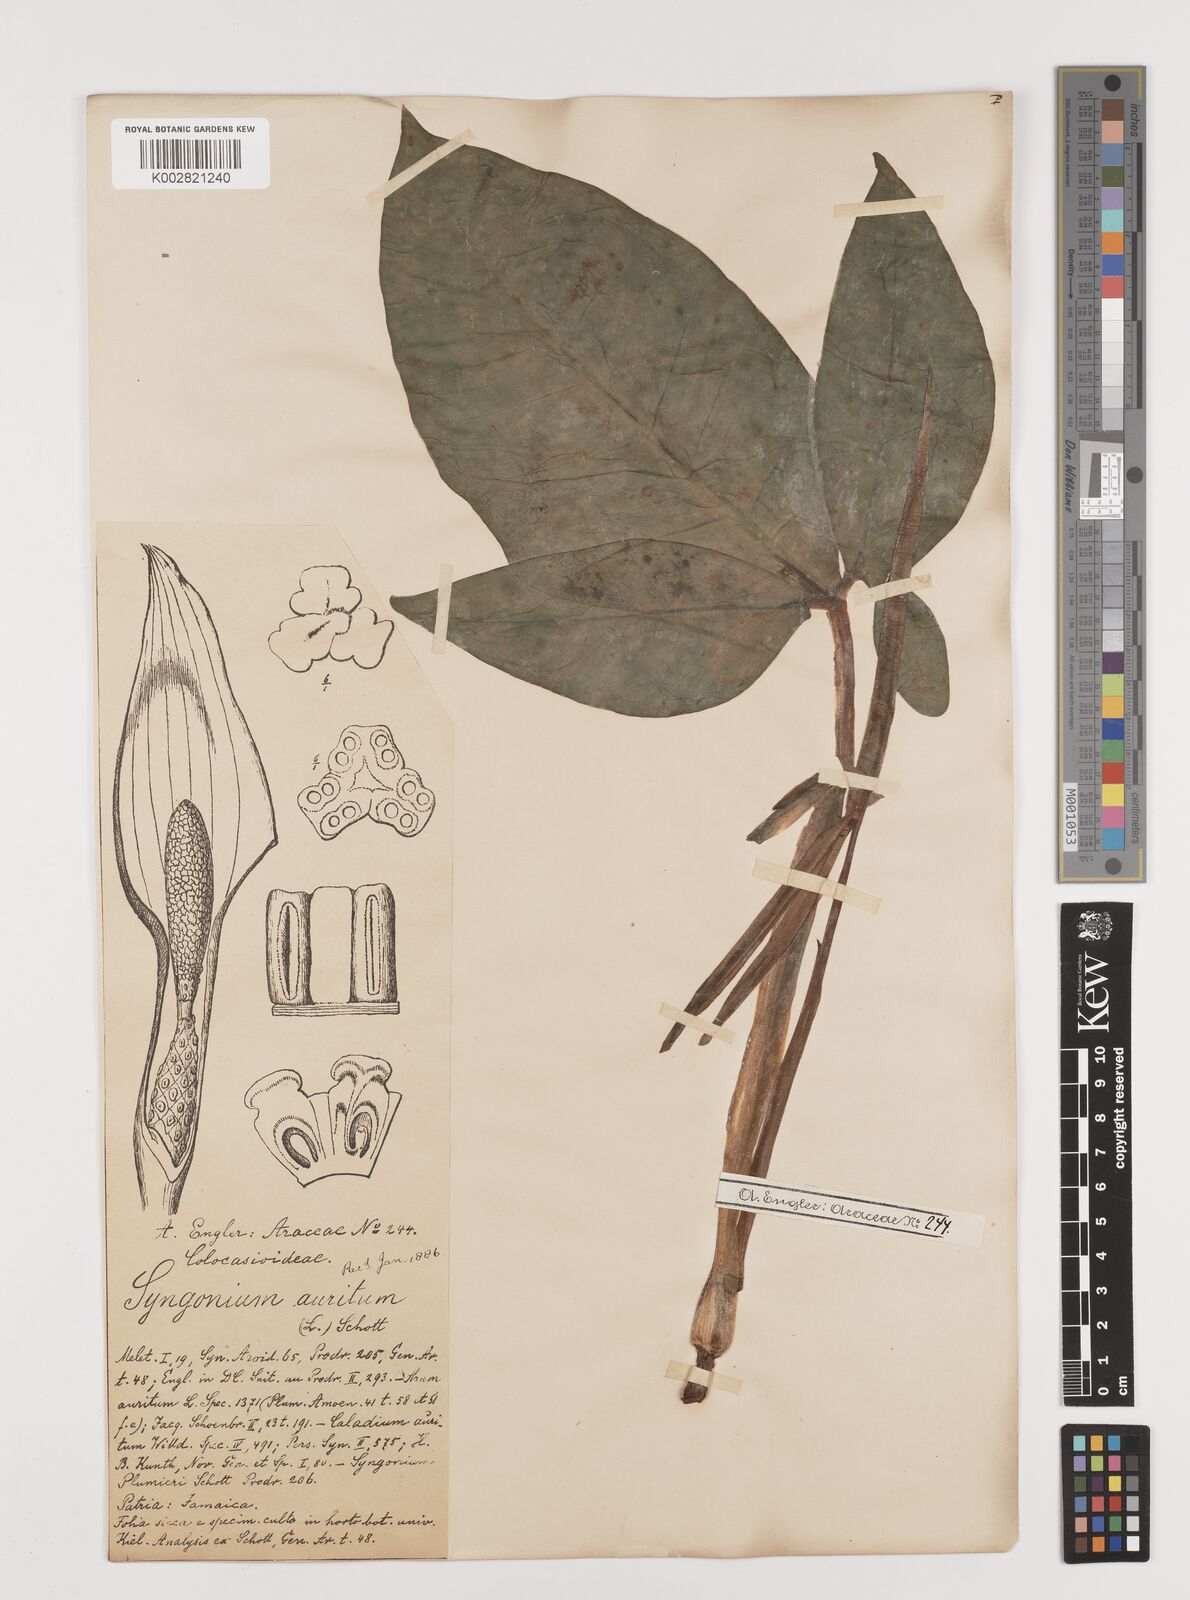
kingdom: Plantae
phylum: Tracheophyta
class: Liliopsida
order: Alismatales
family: Araceae
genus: Syngonium
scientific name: Syngonium auritum
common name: Five-fingers
